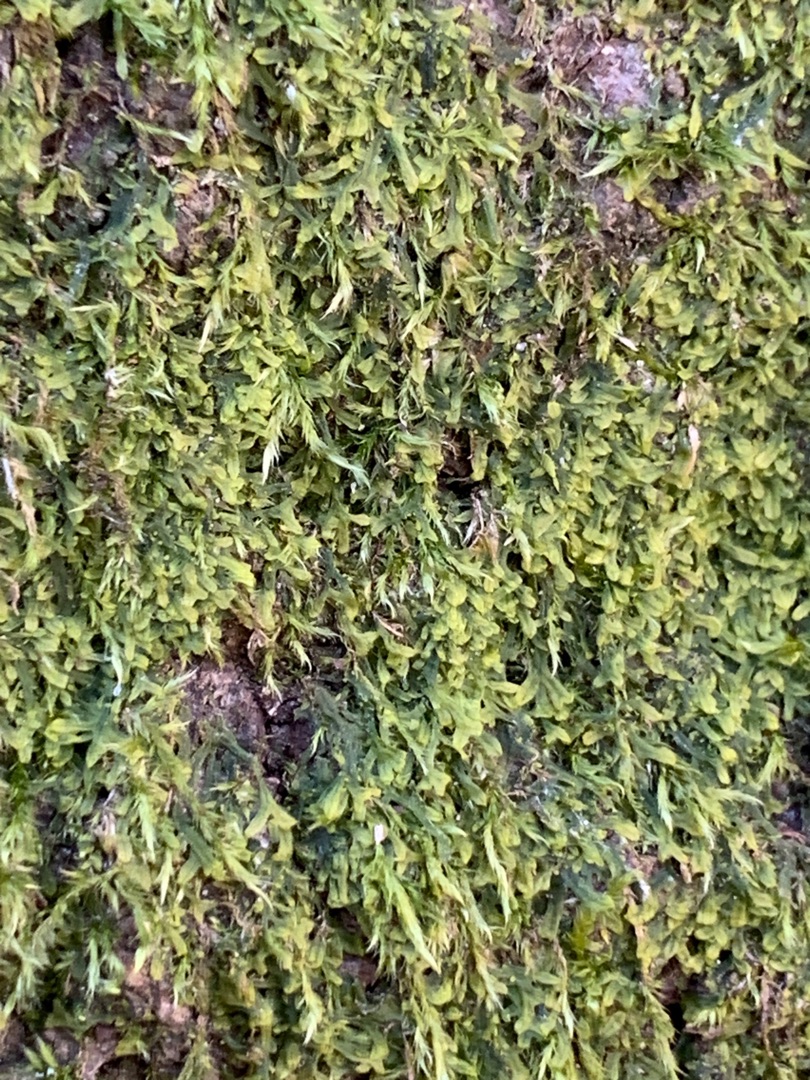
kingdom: Plantae
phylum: Marchantiophyta
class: Jungermanniopsida
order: Metzgeriales
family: Metzgeriaceae
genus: Metzgeria
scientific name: Metzgeria furcata
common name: Almindelig gaffelløv
